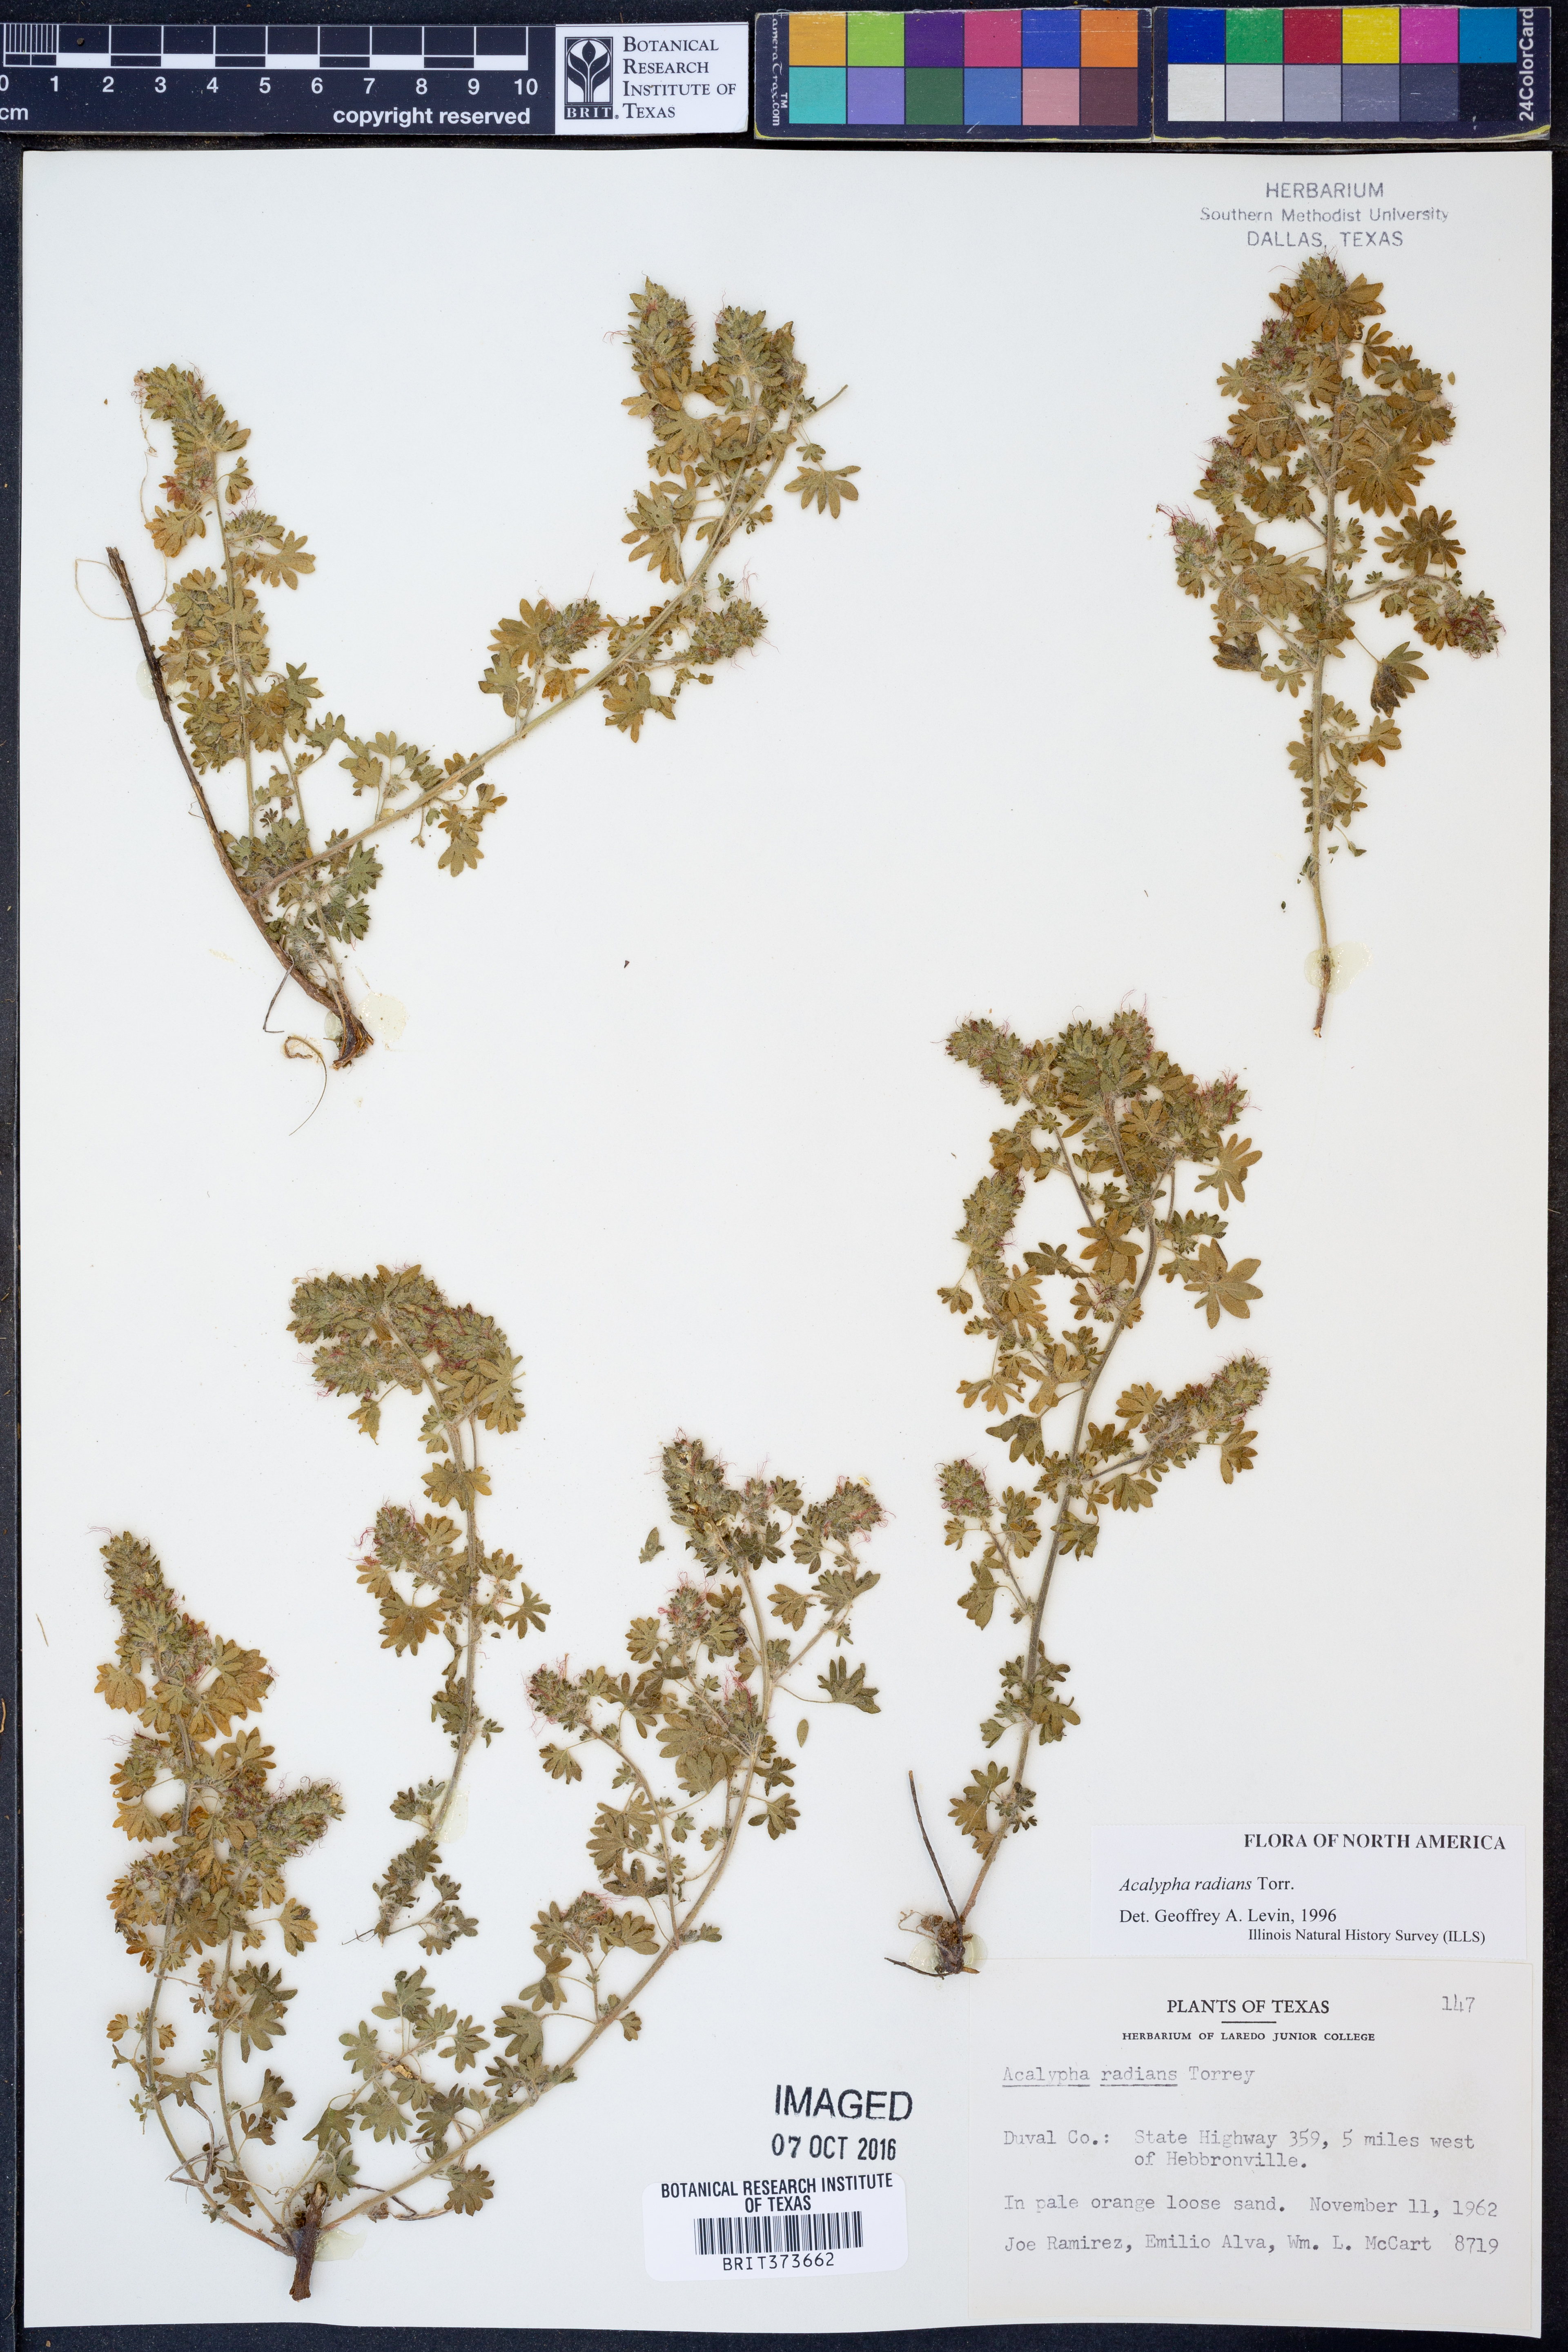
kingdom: Plantae
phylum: Tracheophyta
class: Magnoliopsida
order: Malpighiales
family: Euphorbiaceae
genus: Acalypha
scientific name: Acalypha radians
